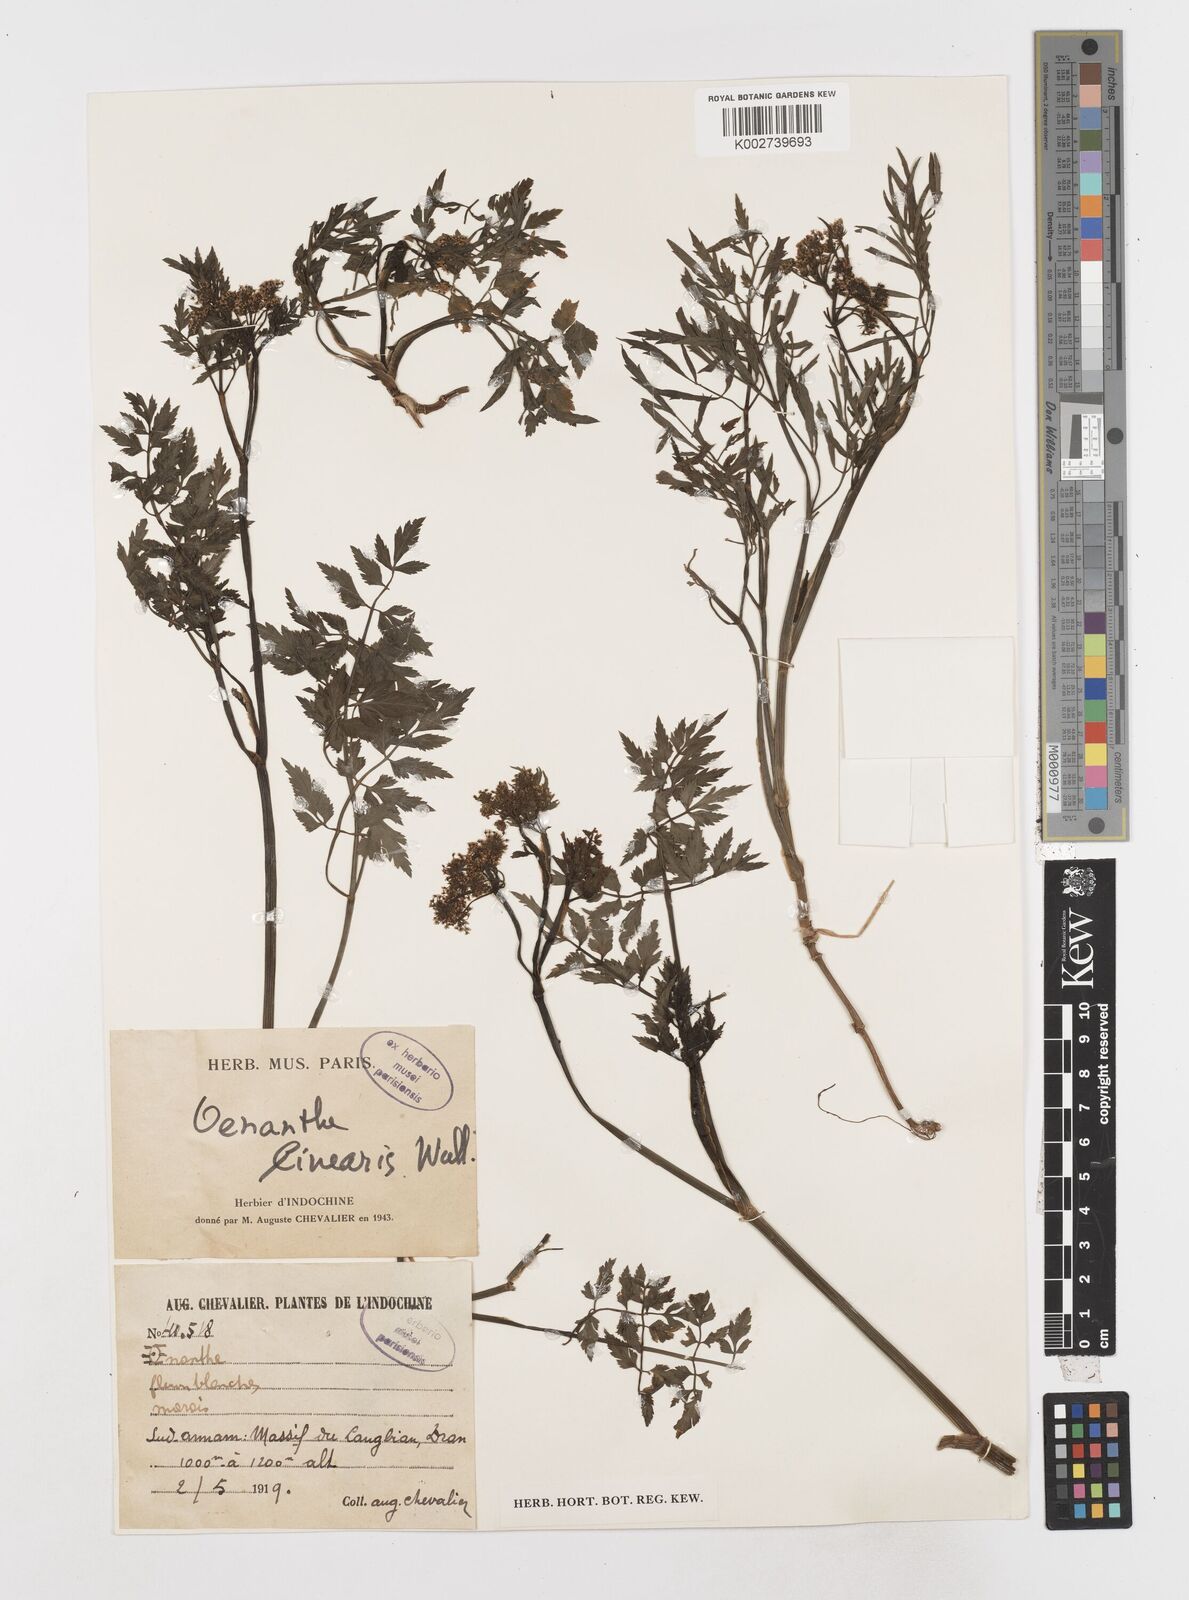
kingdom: Plantae
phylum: Tracheophyta
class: Magnoliopsida
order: Apiales
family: Apiaceae
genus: Oenanthe
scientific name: Oenanthe javanica
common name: Java water-dropwort
